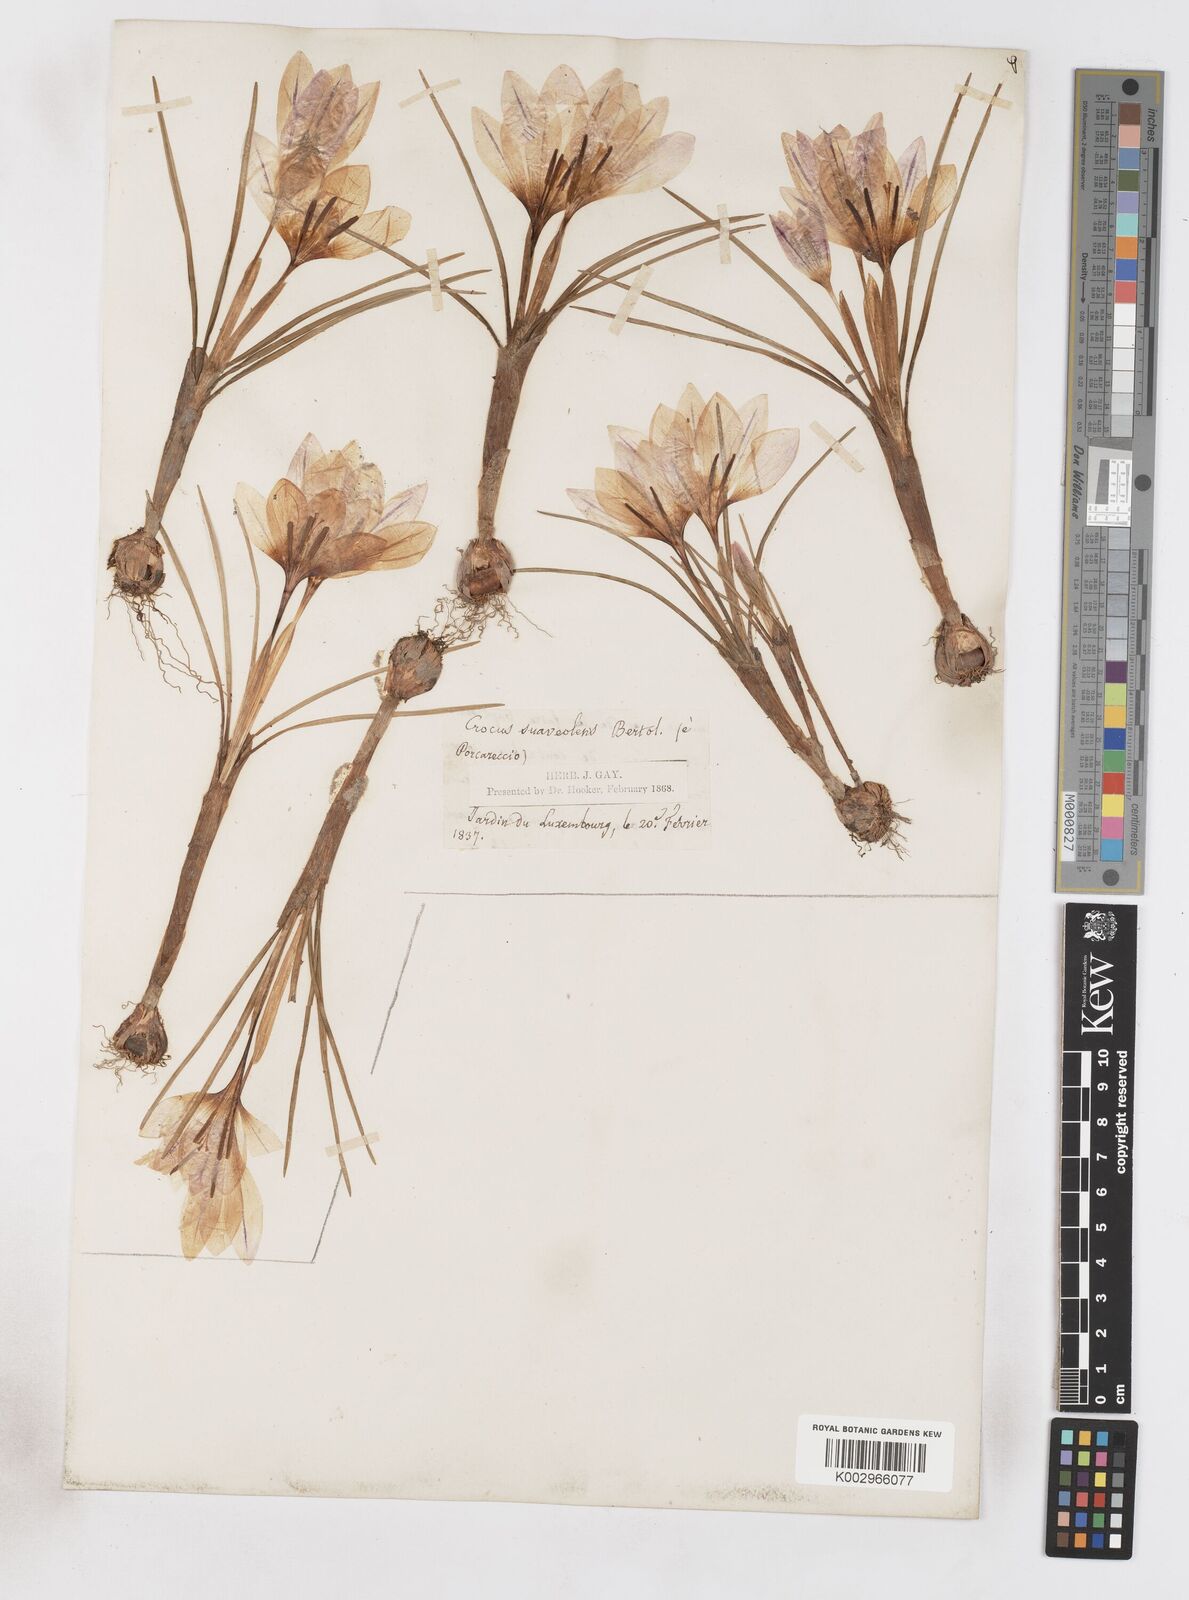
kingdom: Plantae
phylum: Tracheophyta
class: Liliopsida
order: Asparagales
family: Iridaceae
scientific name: Iridaceae
